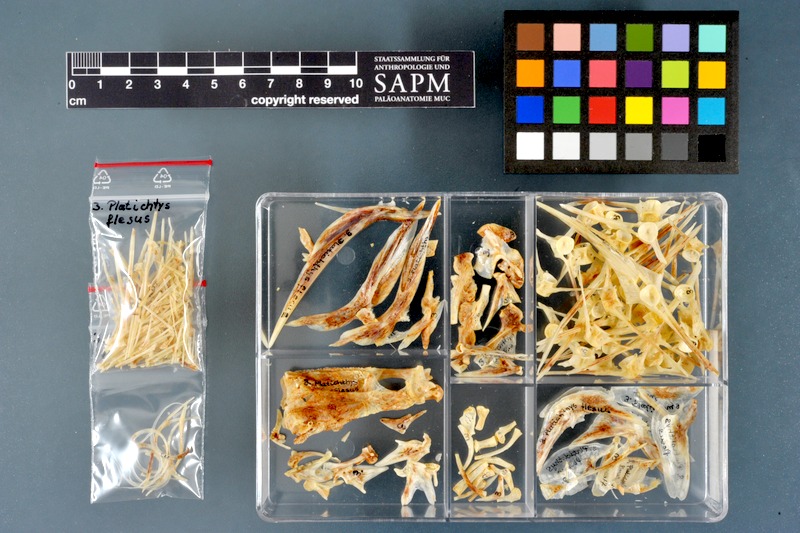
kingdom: Animalia
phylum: Chordata
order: Pleuronectiformes
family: Pleuronectidae
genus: Platichthys
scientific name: Platichthys flesus
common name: European flounder
